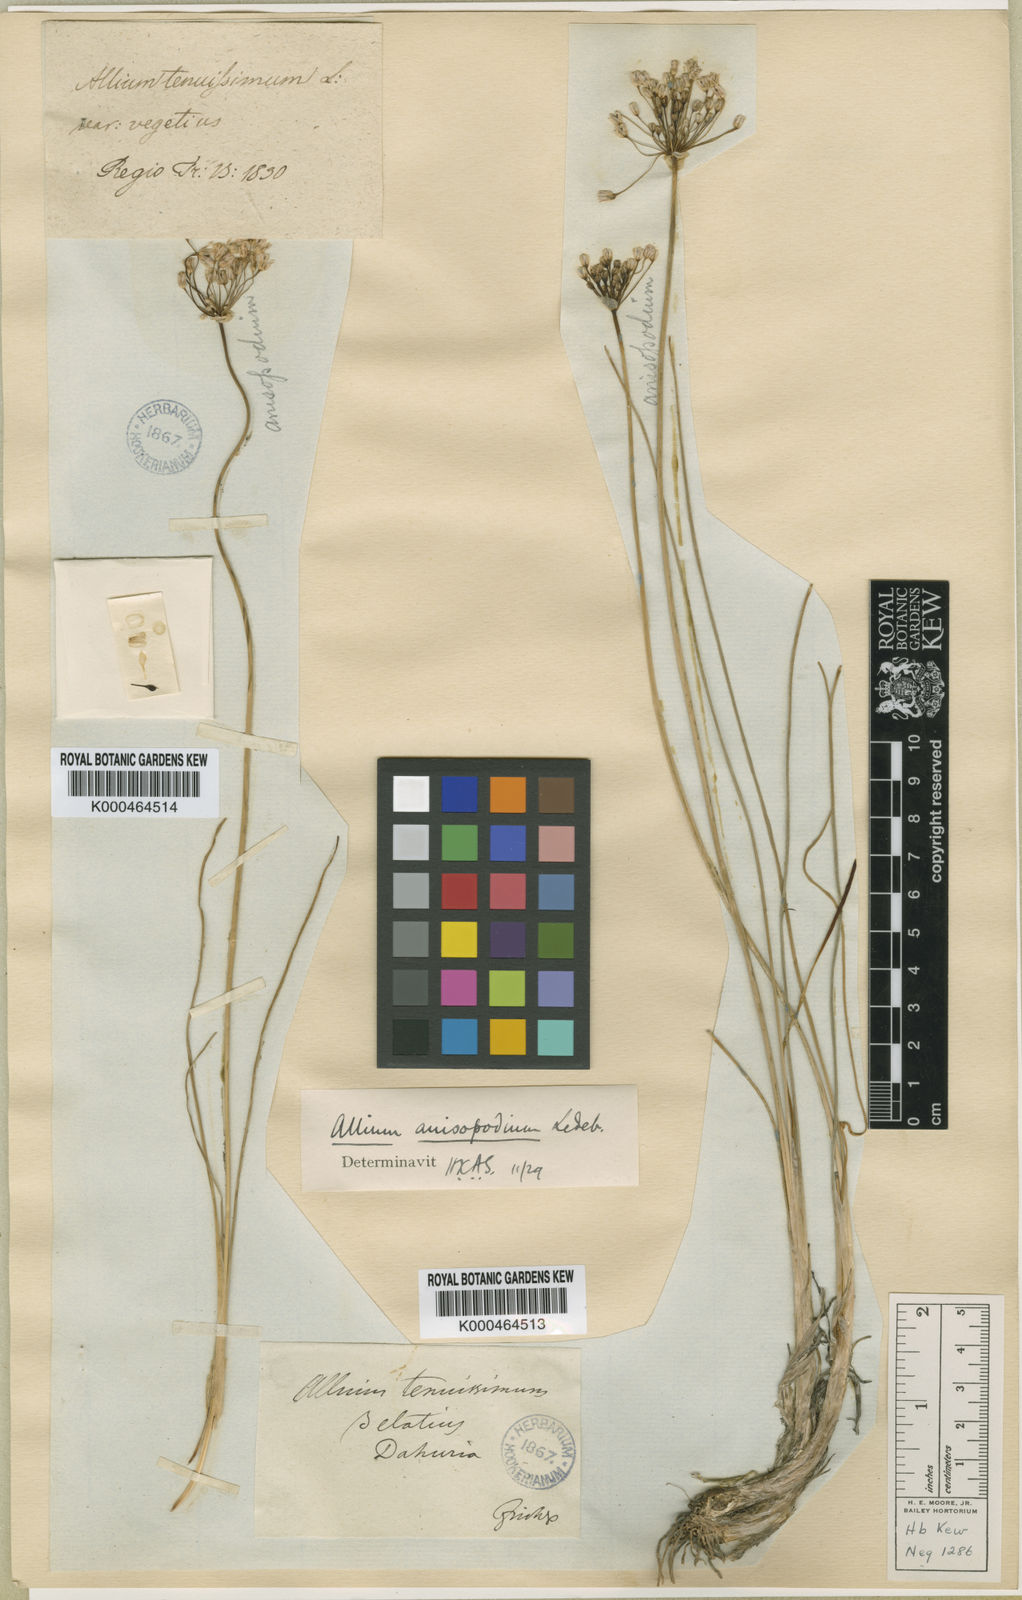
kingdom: Plantae
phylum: Tracheophyta
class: Liliopsida
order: Asparagales
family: Amaryllidaceae
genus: Allium
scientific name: Allium anisopodium
